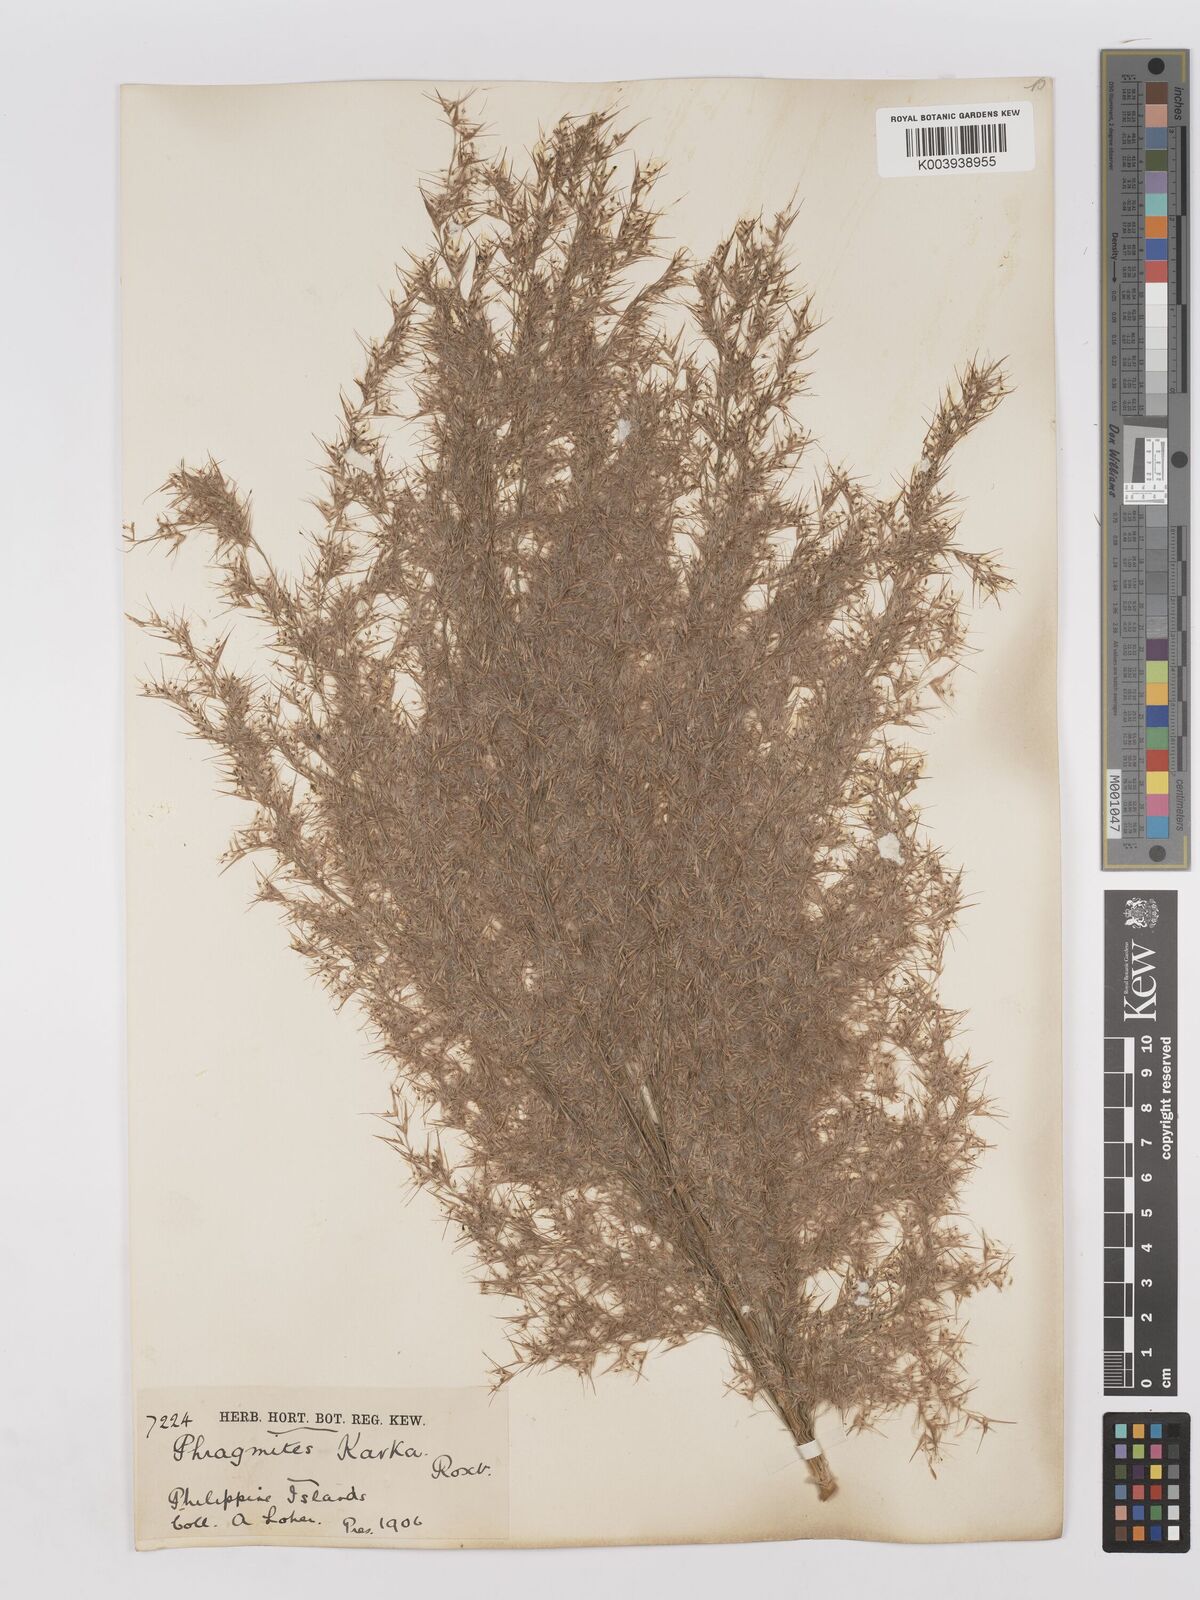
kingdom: Plantae
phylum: Tracheophyta
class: Liliopsida
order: Poales
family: Poaceae
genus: Phragmites
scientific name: Phragmites karka
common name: Tropical reed
